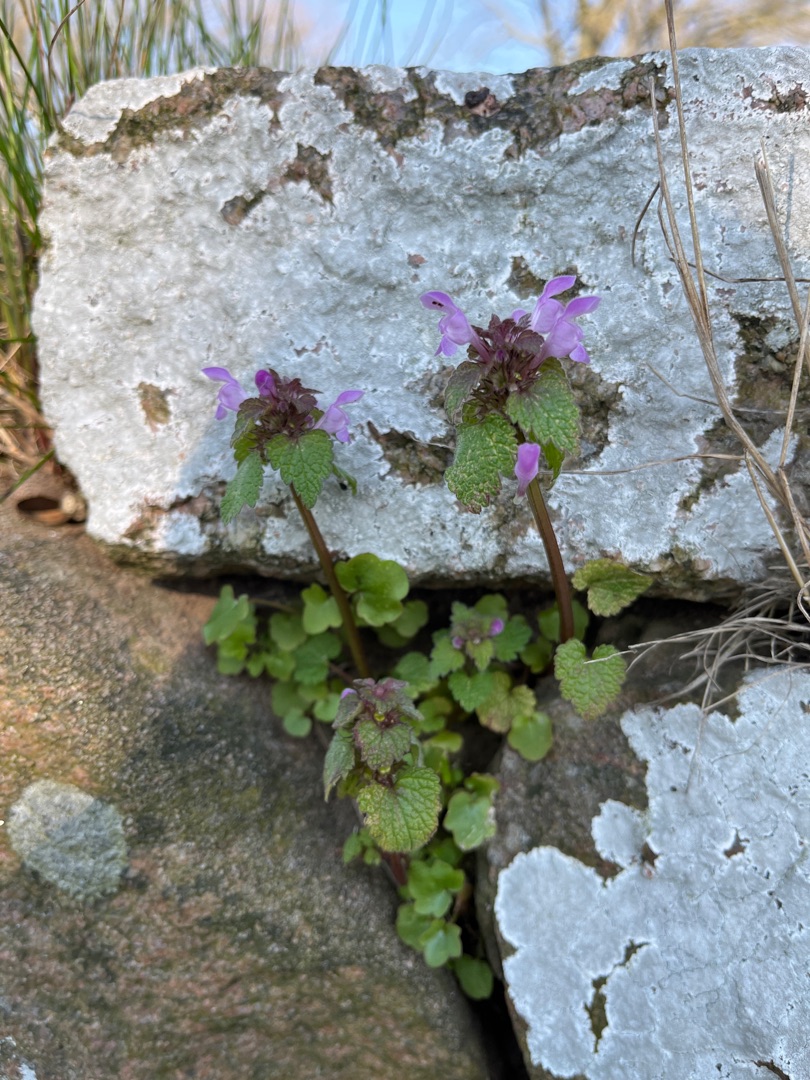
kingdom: Plantae
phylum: Tracheophyta
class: Magnoliopsida
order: Lamiales
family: Lamiaceae
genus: Lamium
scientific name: Lamium purpureum
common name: Rød tvetand
